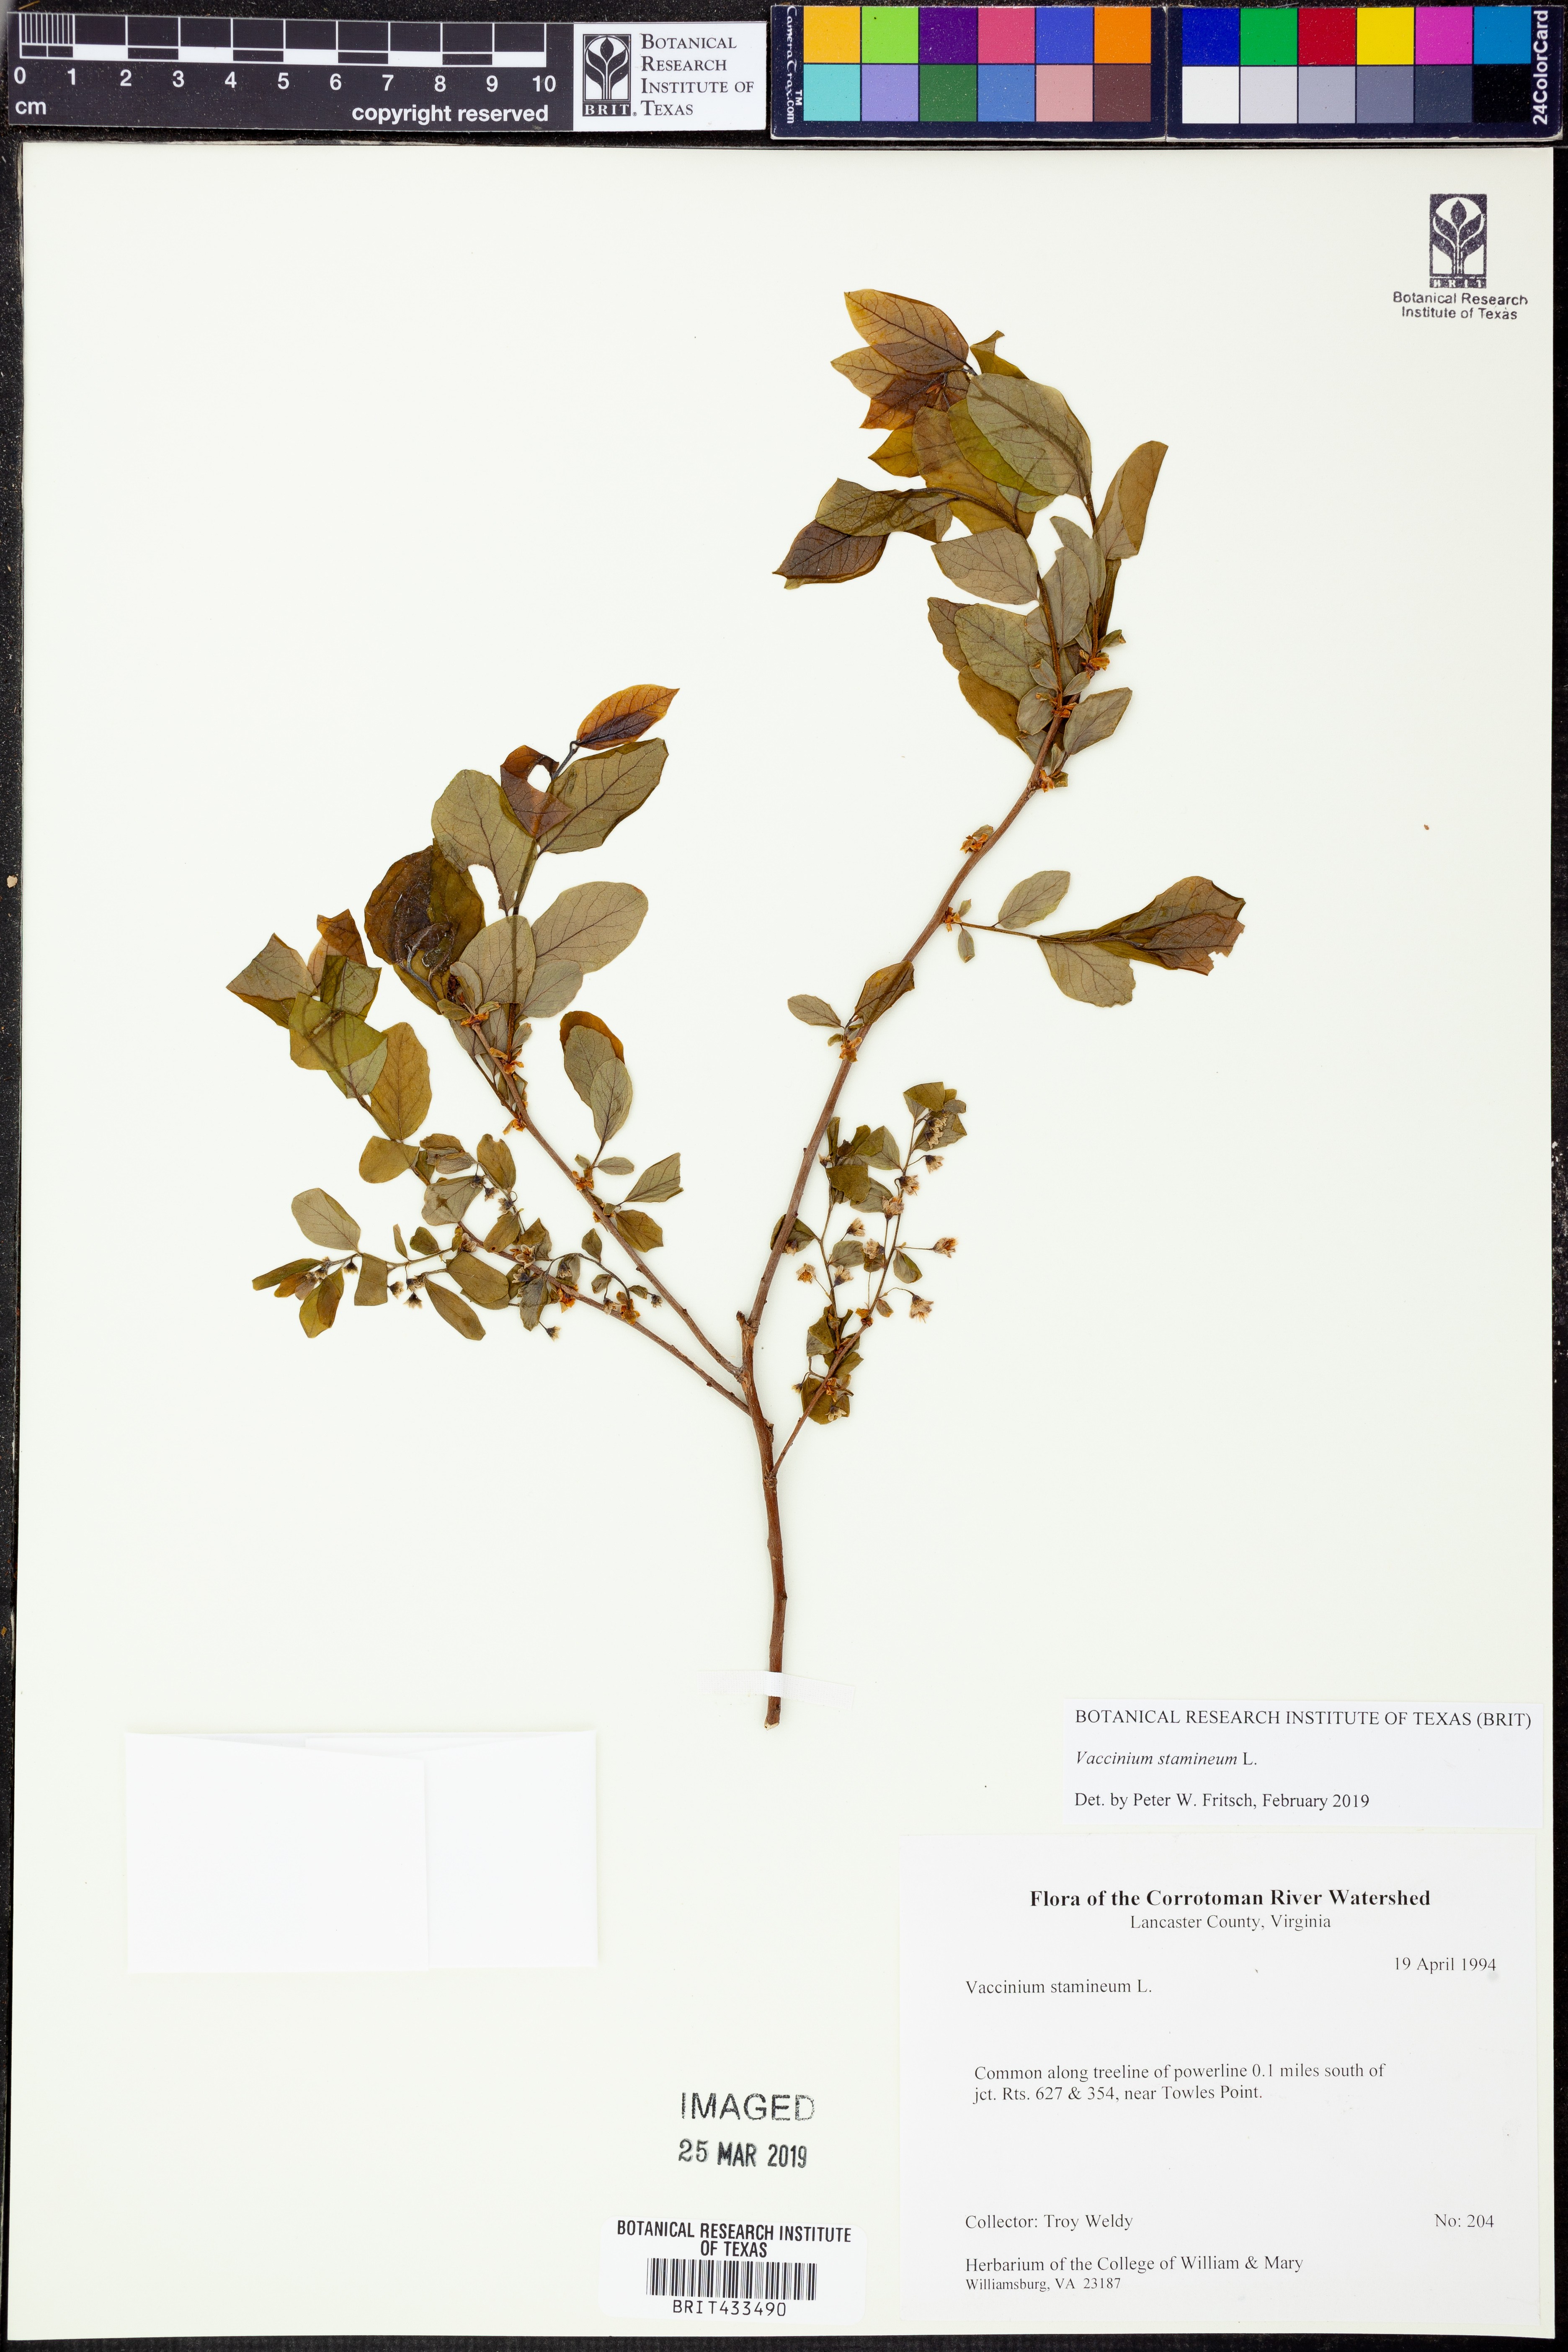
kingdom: Plantae
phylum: Tracheophyta
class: Magnoliopsida
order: Ericales
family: Ericaceae
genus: Vaccinium
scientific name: Vaccinium stamineum
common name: Deerberry
